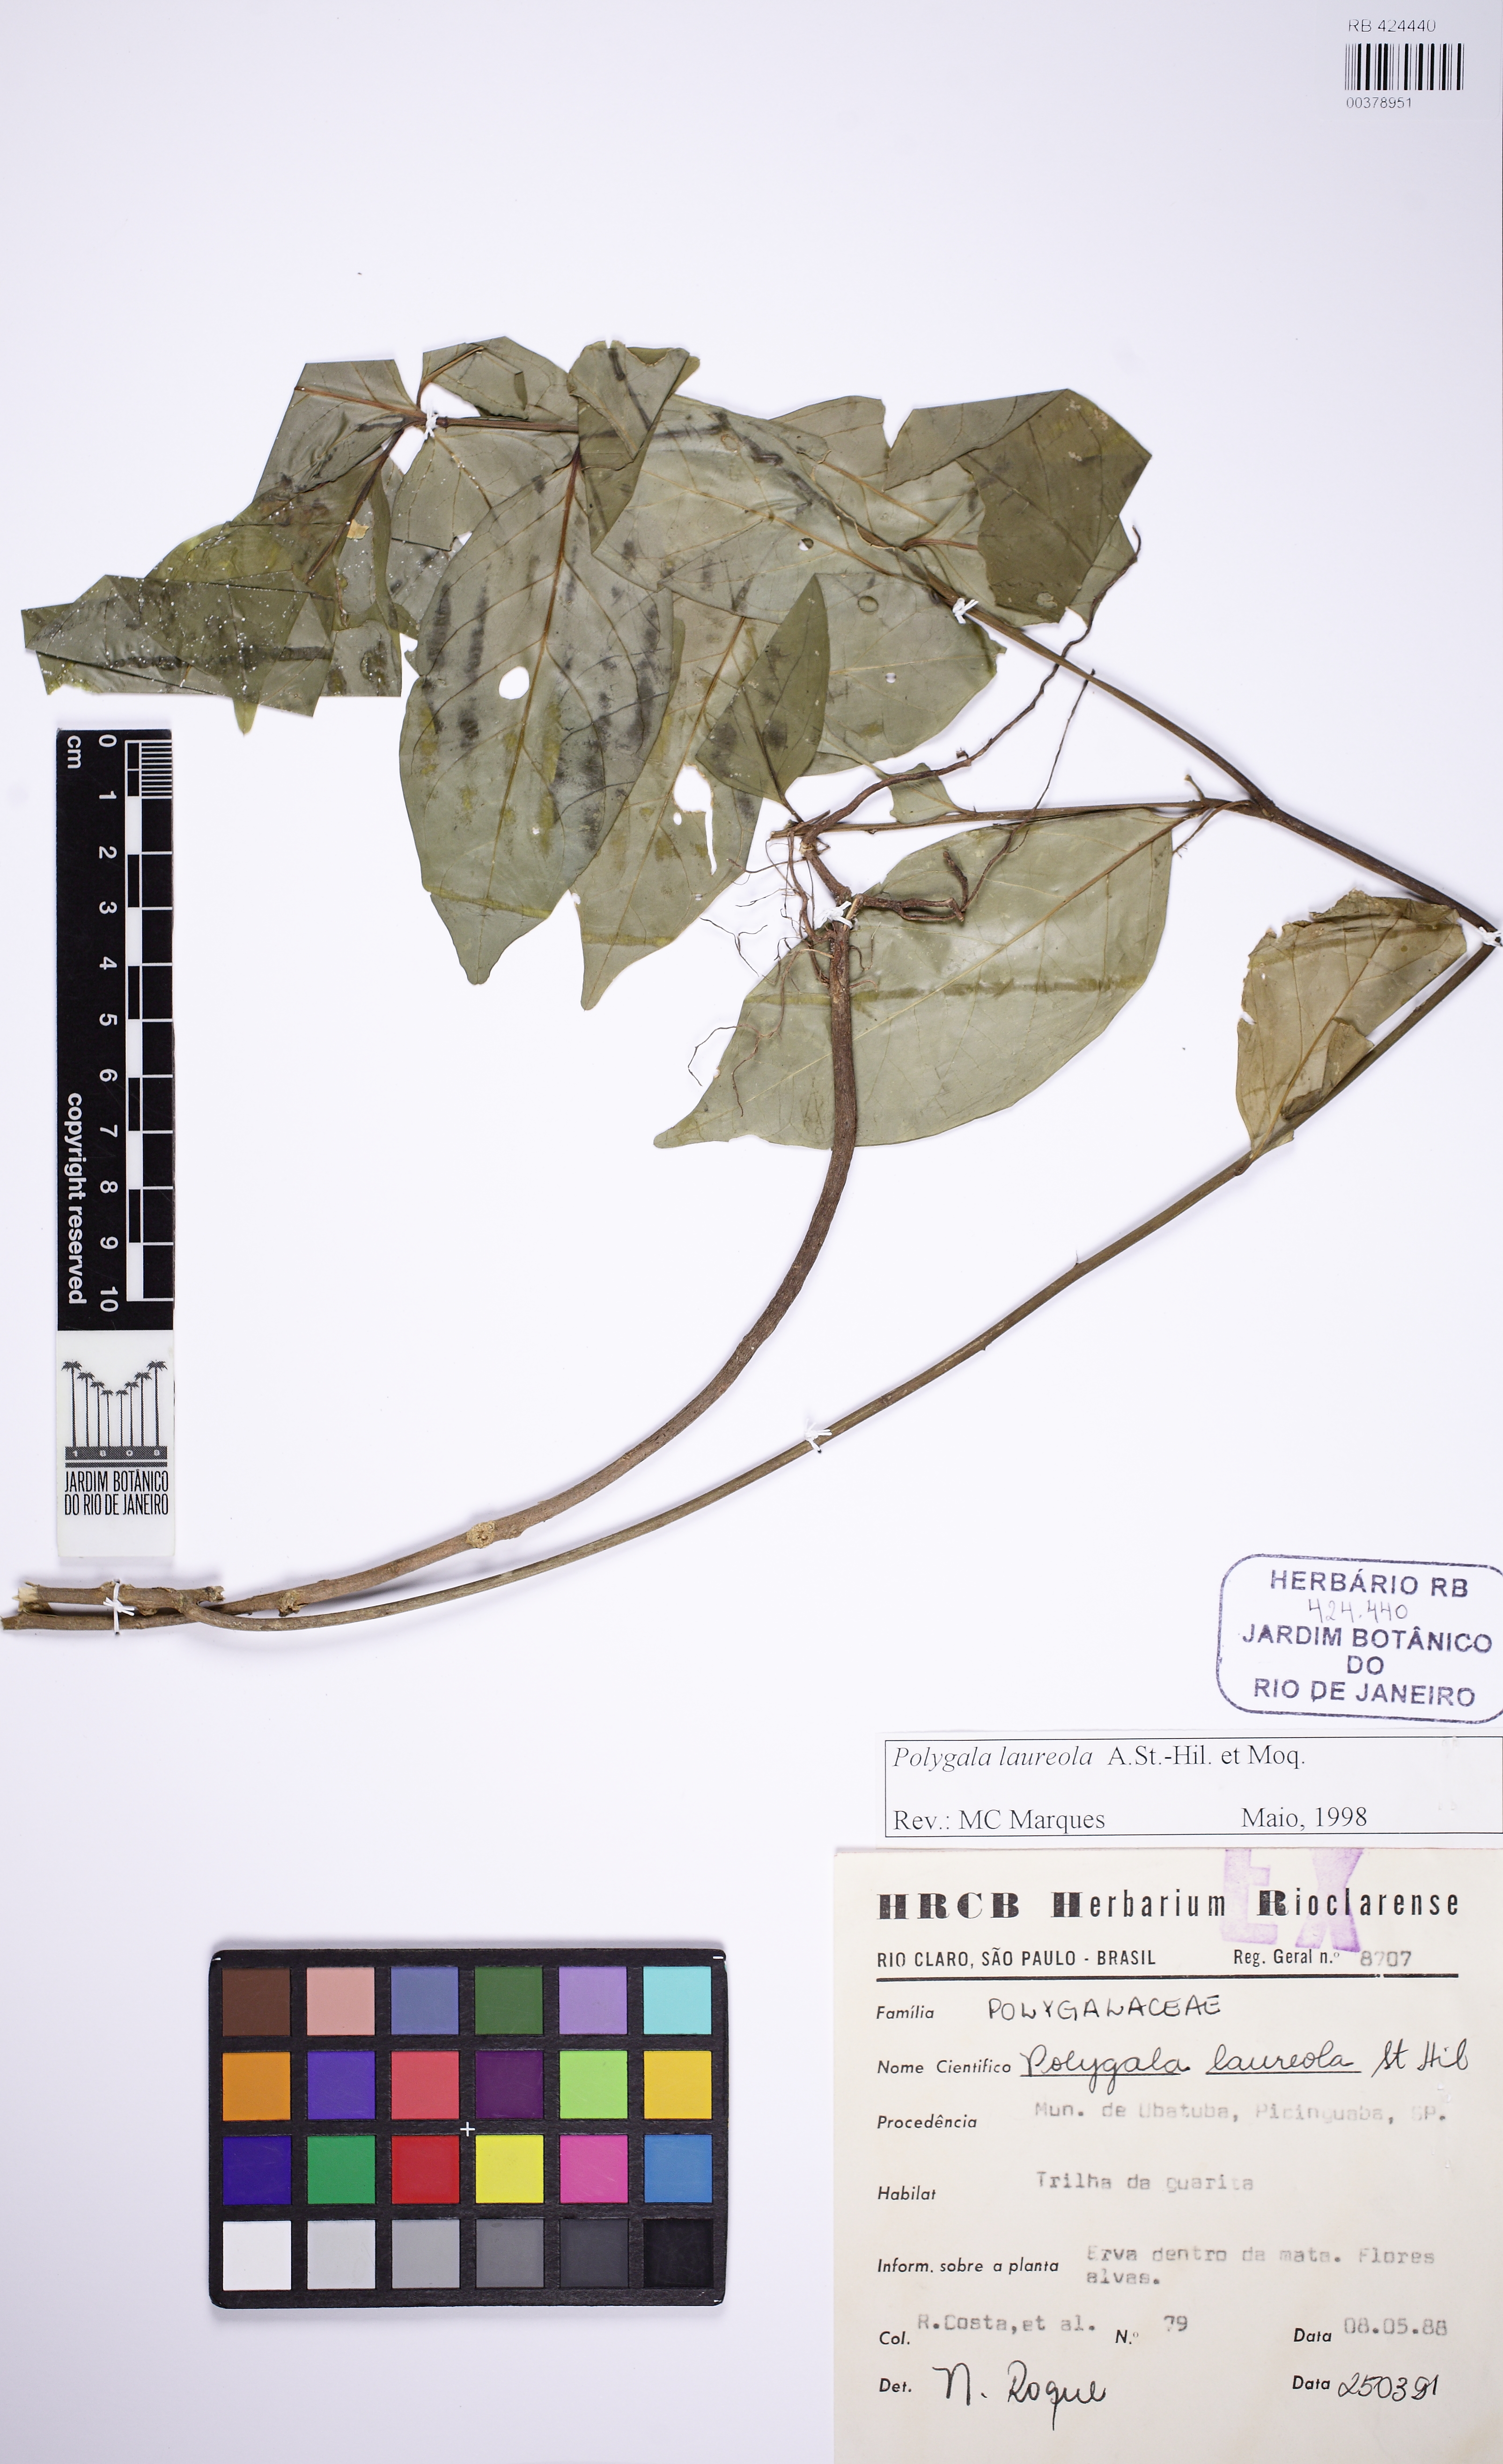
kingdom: Plantae
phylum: Tracheophyta
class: Magnoliopsida
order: Fabales
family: Polygalaceae
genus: Caamembeca
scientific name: Caamembeca salicifolia
